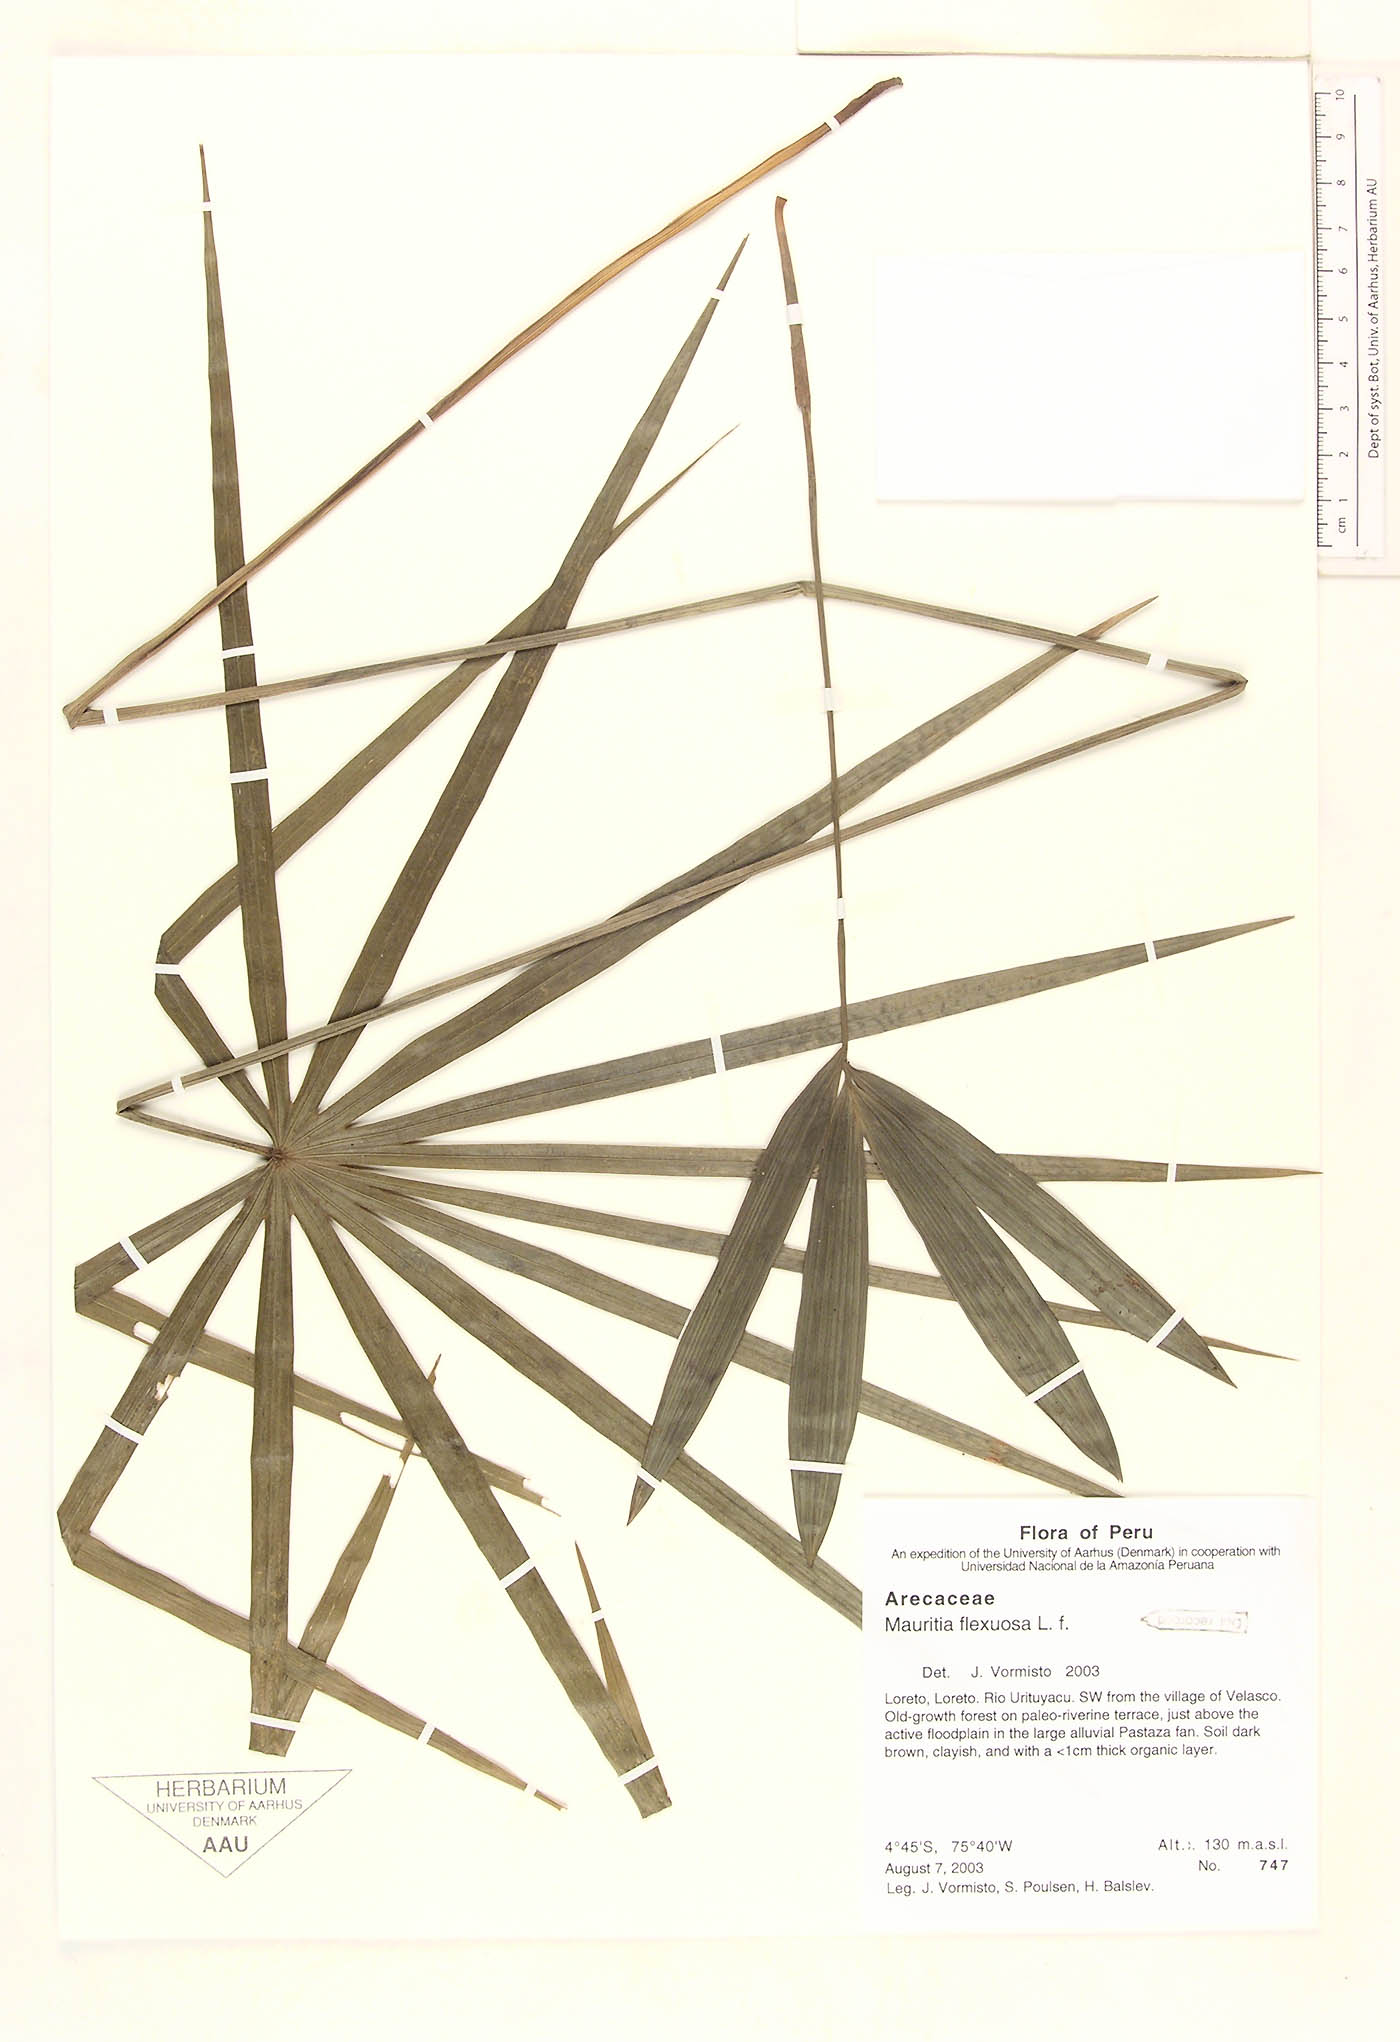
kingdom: Plantae
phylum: Tracheophyta
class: Liliopsida
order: Arecales
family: Arecaceae
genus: Mauritia
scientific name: Mauritia flexuosa
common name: Tree-of-life
